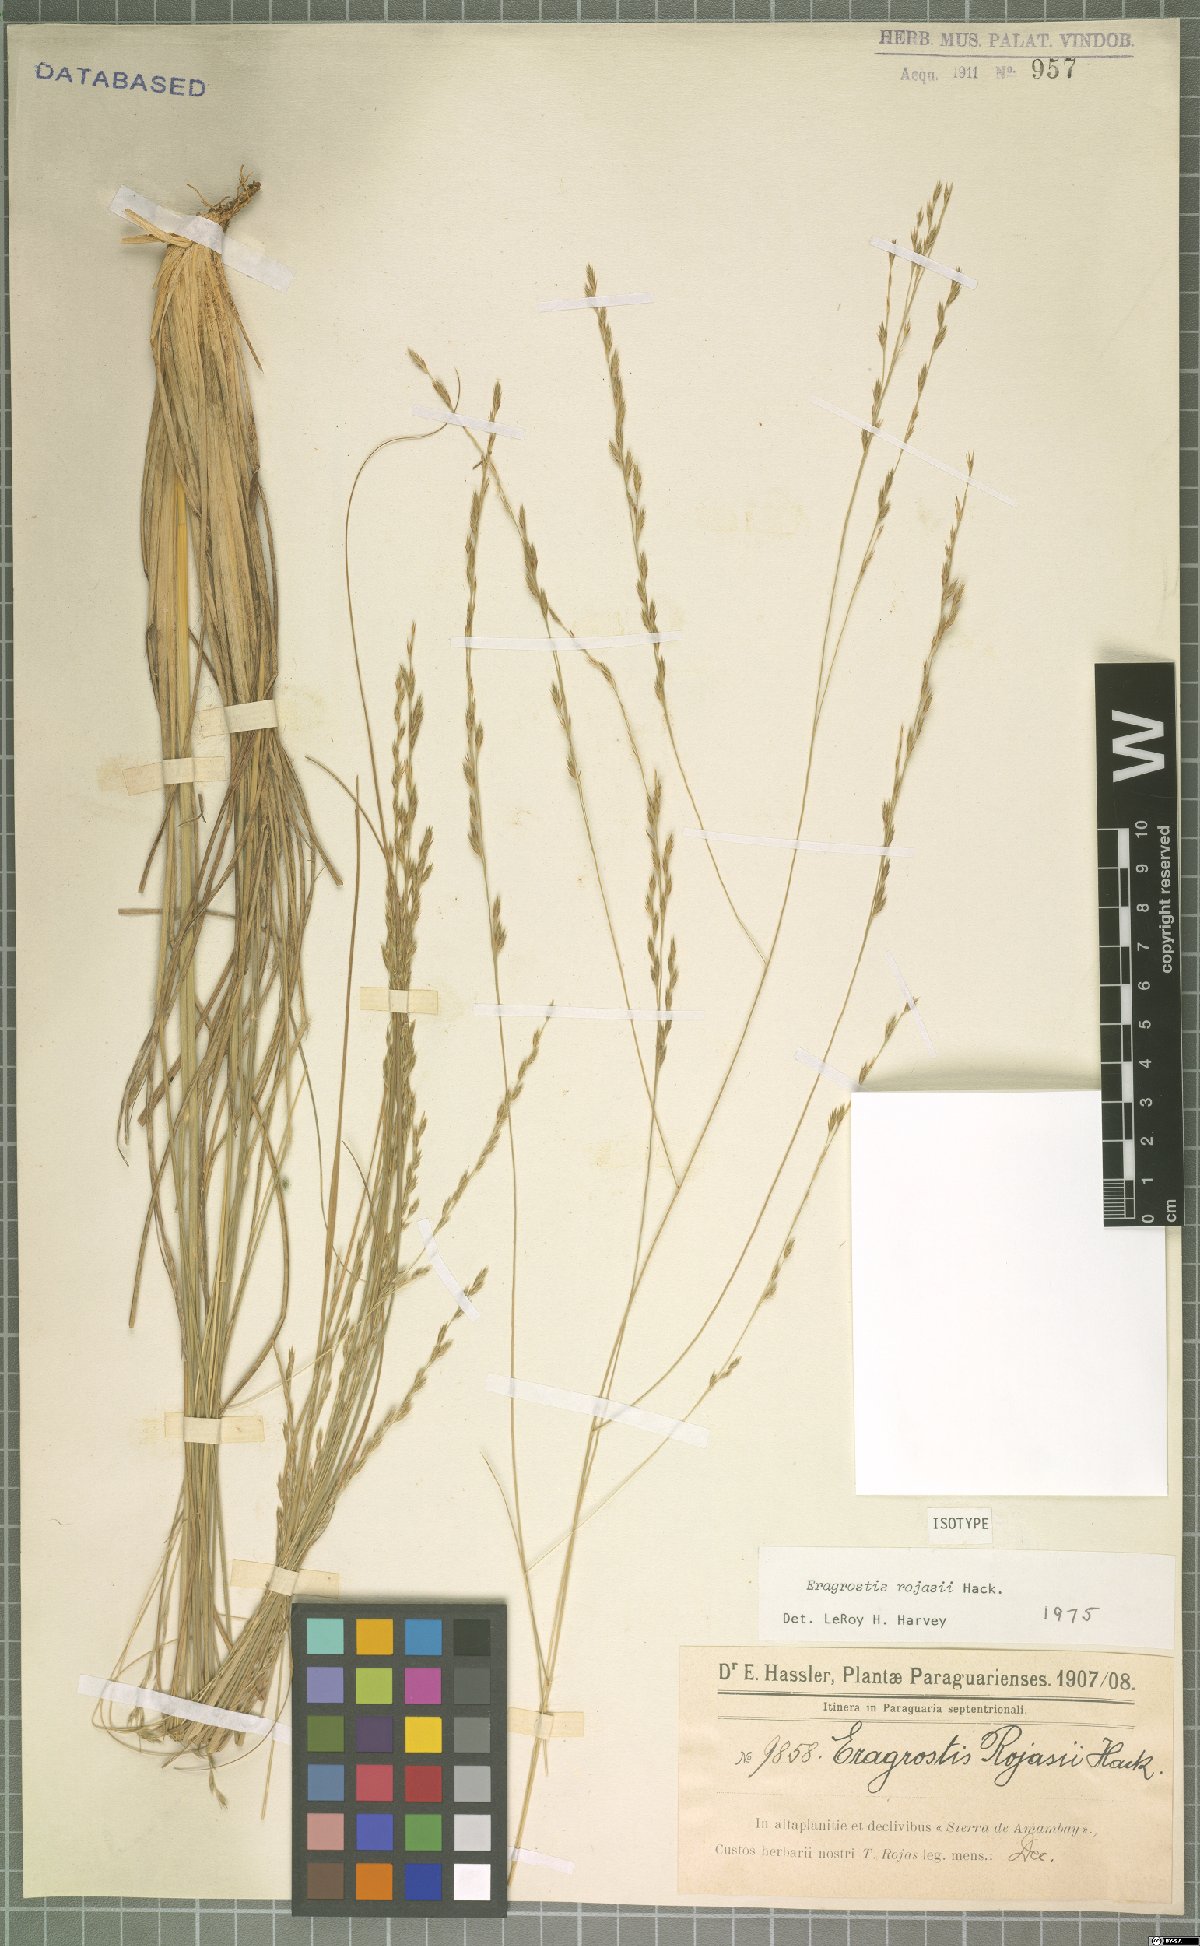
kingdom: Plantae
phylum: Tracheophyta
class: Liliopsida
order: Poales
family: Poaceae
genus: Eragrostis
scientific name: Eragrostis rojasii
